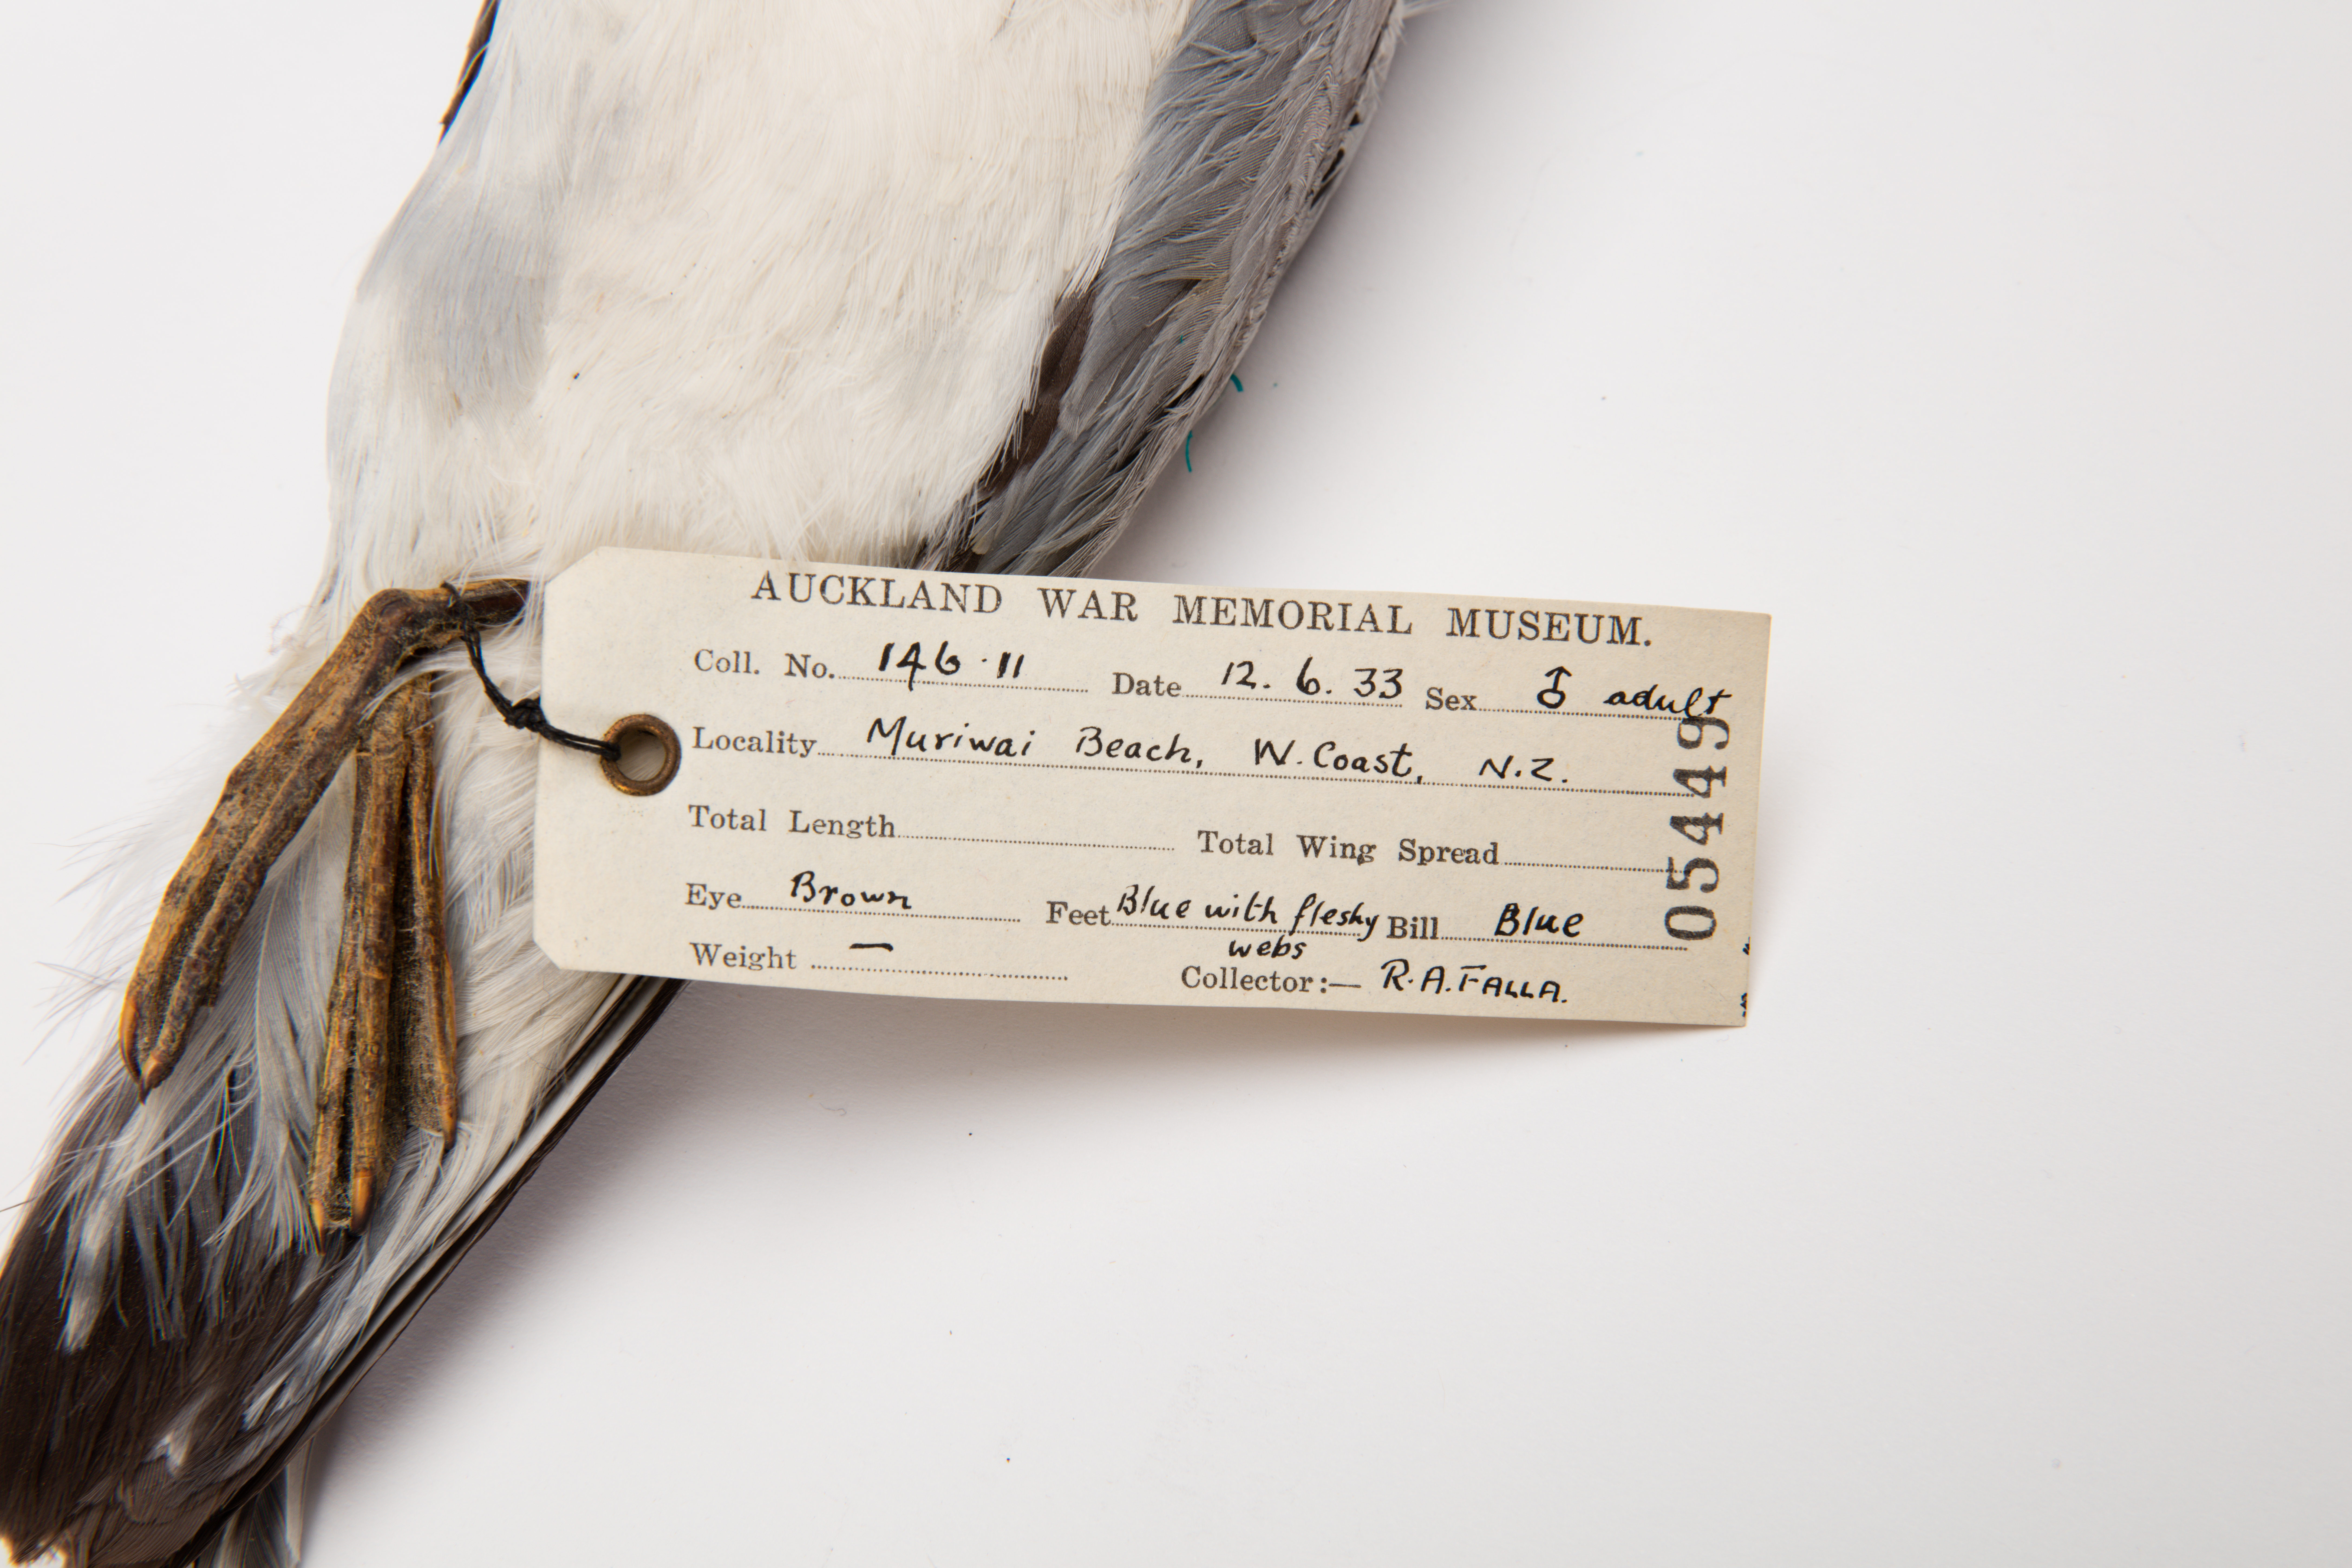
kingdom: Animalia
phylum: Chordata
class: Aves
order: Procellariiformes
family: Procellariidae
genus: Pachyptila
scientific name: Pachyptila salvini
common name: Salvin's prion
